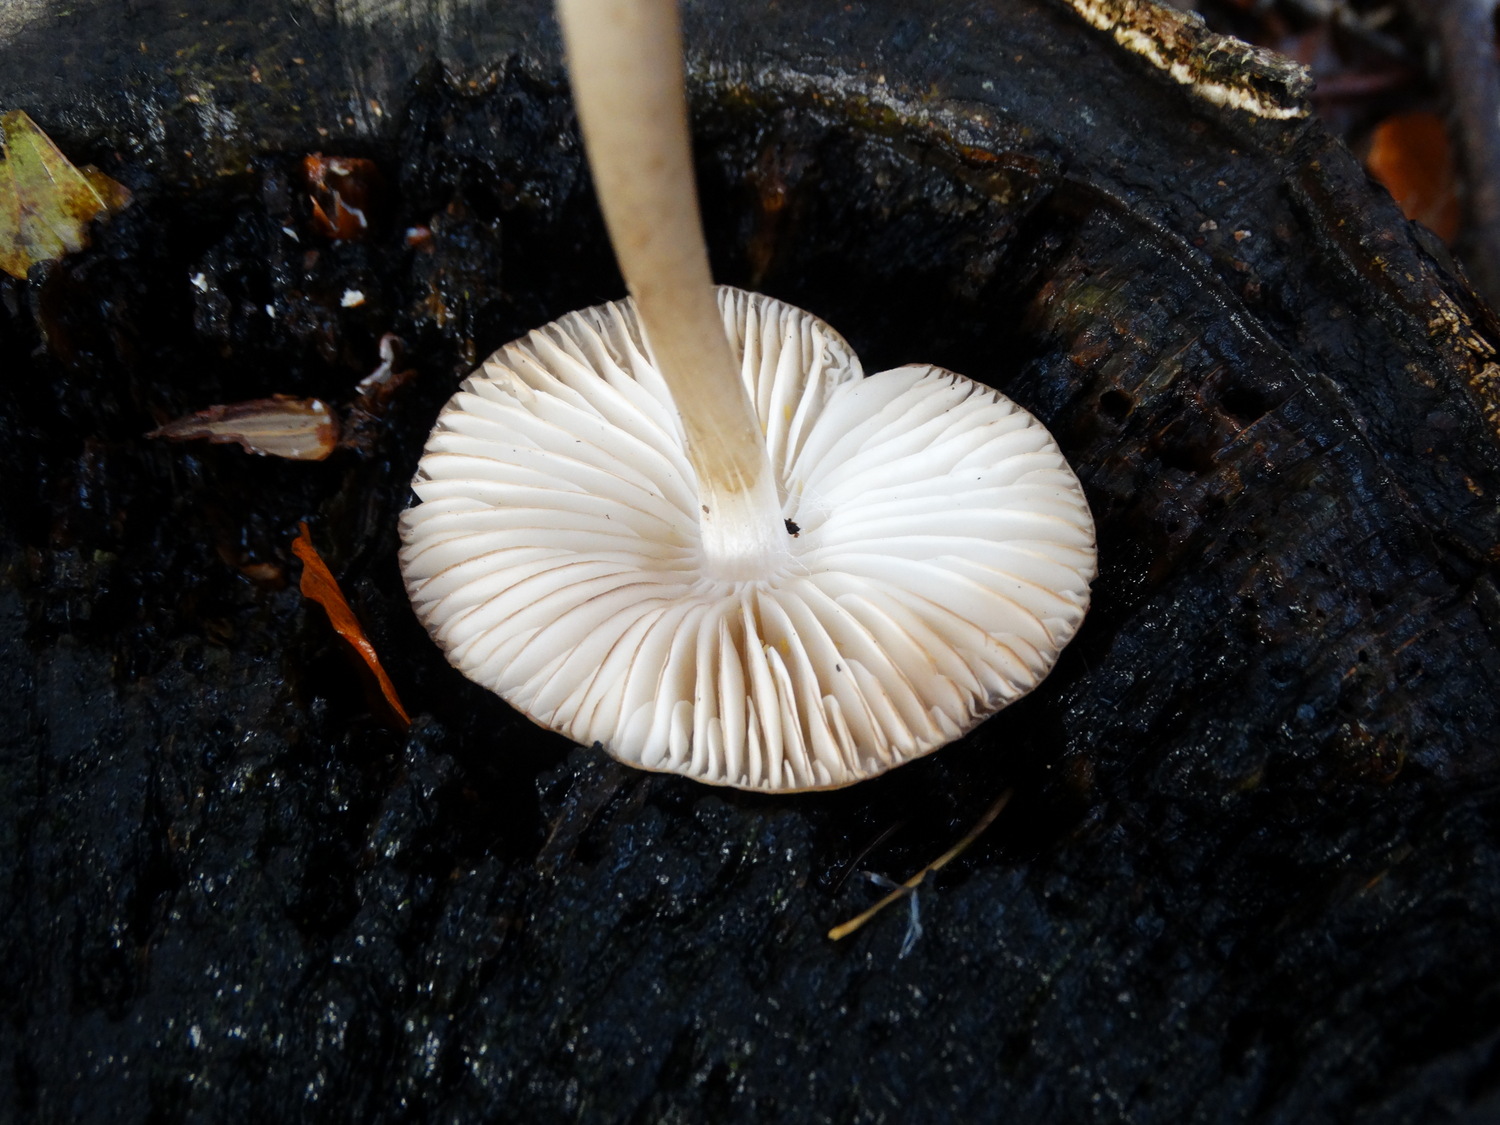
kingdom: Fungi
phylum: Basidiomycota
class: Agaricomycetes
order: Agaricales
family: Physalacriaceae
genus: Hymenopellis
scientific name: Hymenopellis radicata
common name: almindelig pælerodshat
